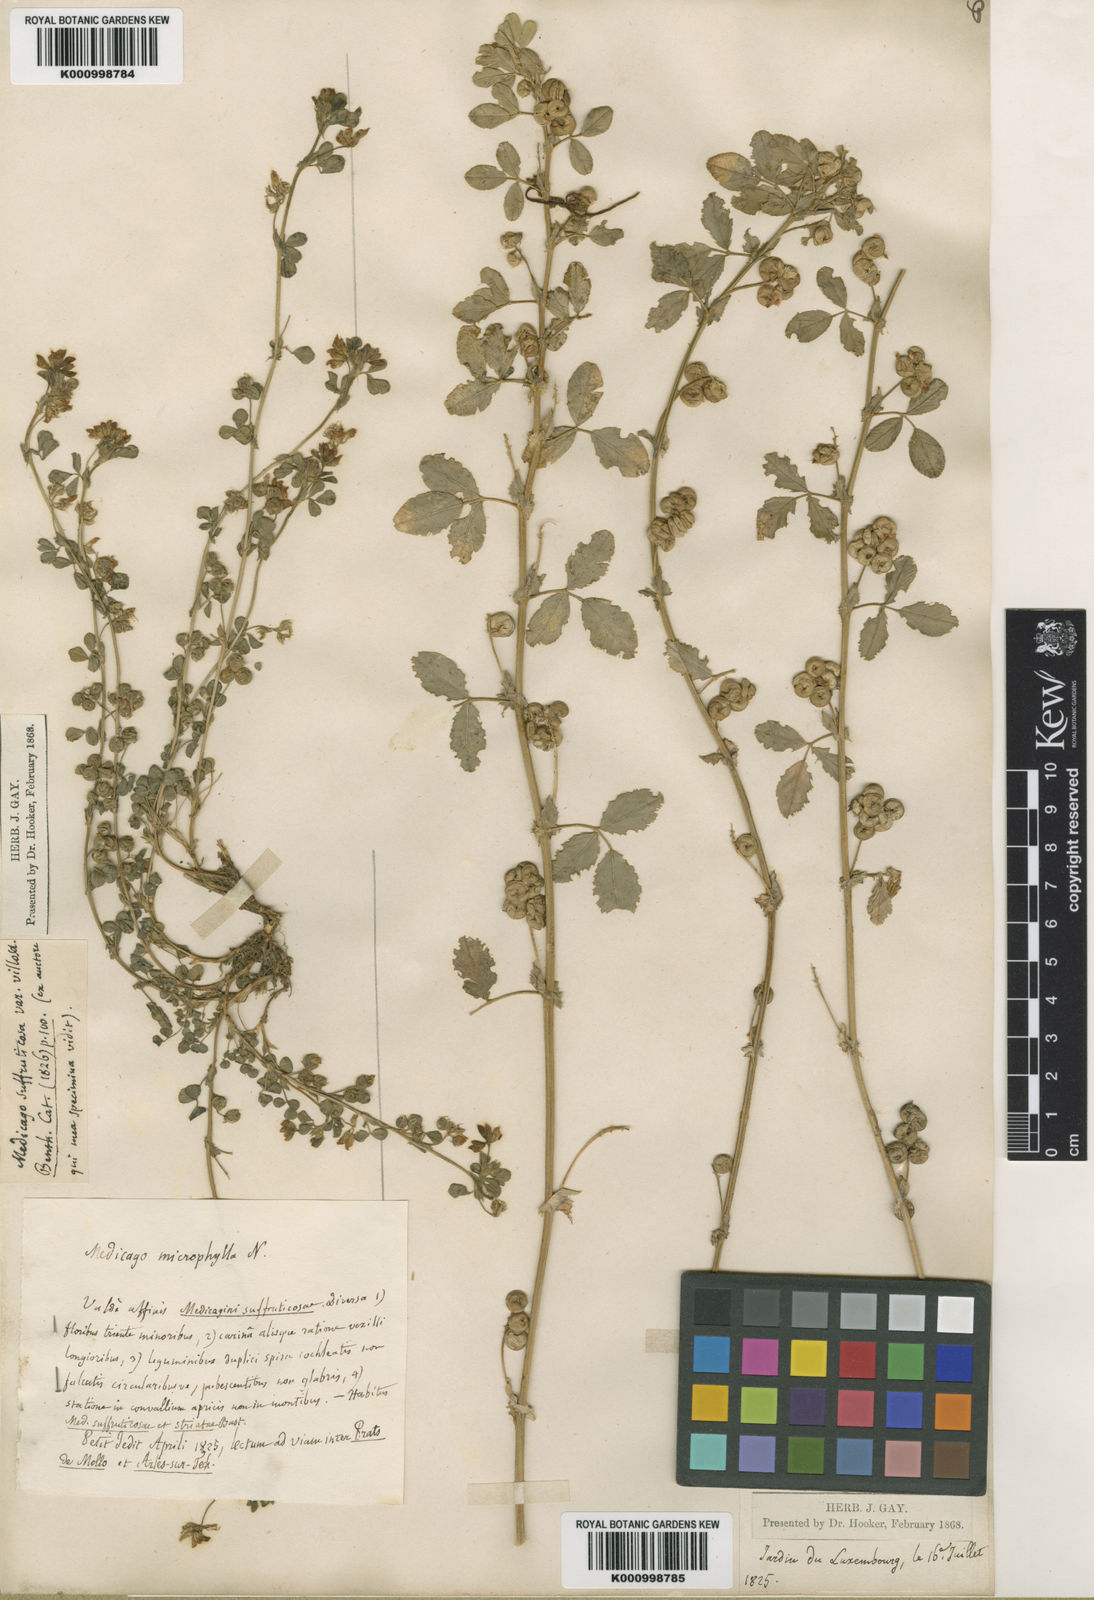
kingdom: Plantae
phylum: Tracheophyta
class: Magnoliopsida
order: Fabales
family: Fabaceae
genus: Medicago
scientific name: Medicago suffruticosa
